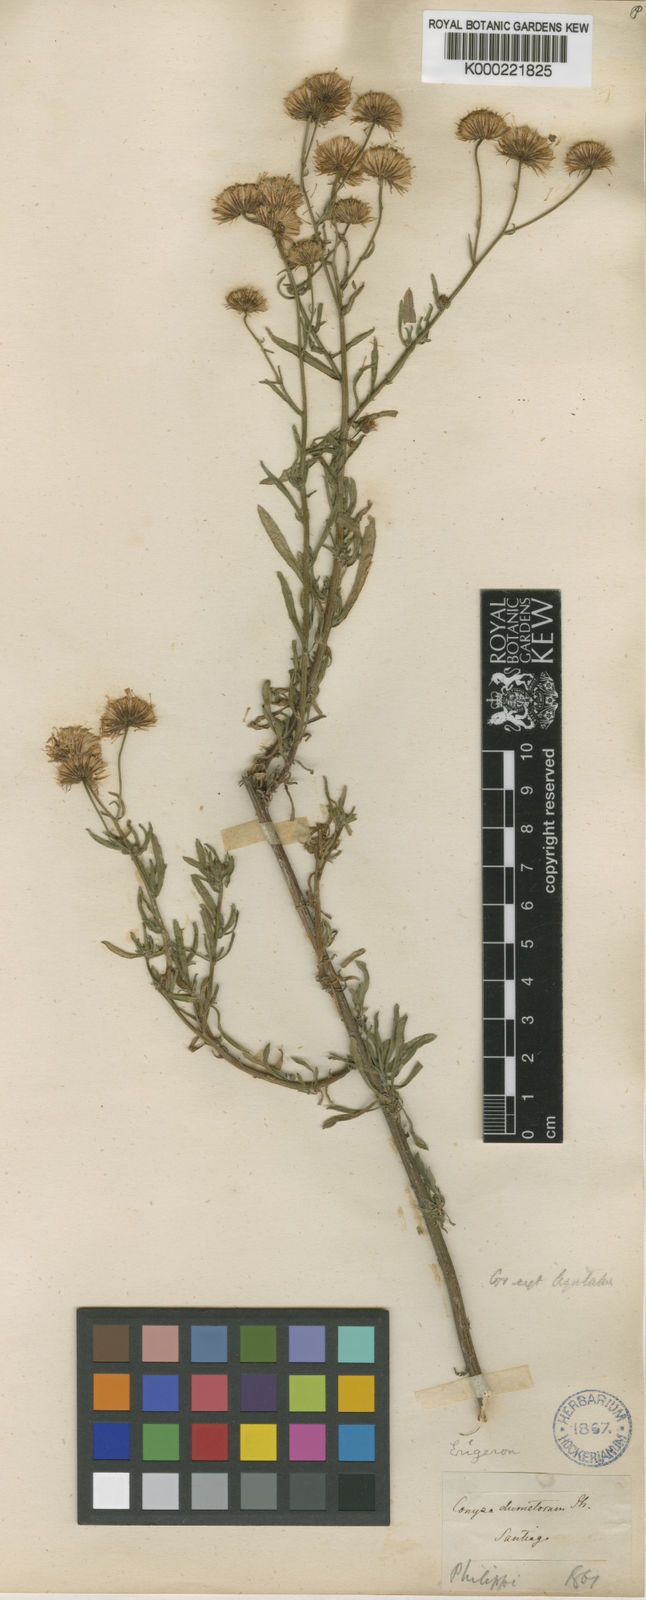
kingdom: Plantae
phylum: Tracheophyta
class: Magnoliopsida
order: Asterales
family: Asteraceae
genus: Erigeron
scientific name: Erigeron
